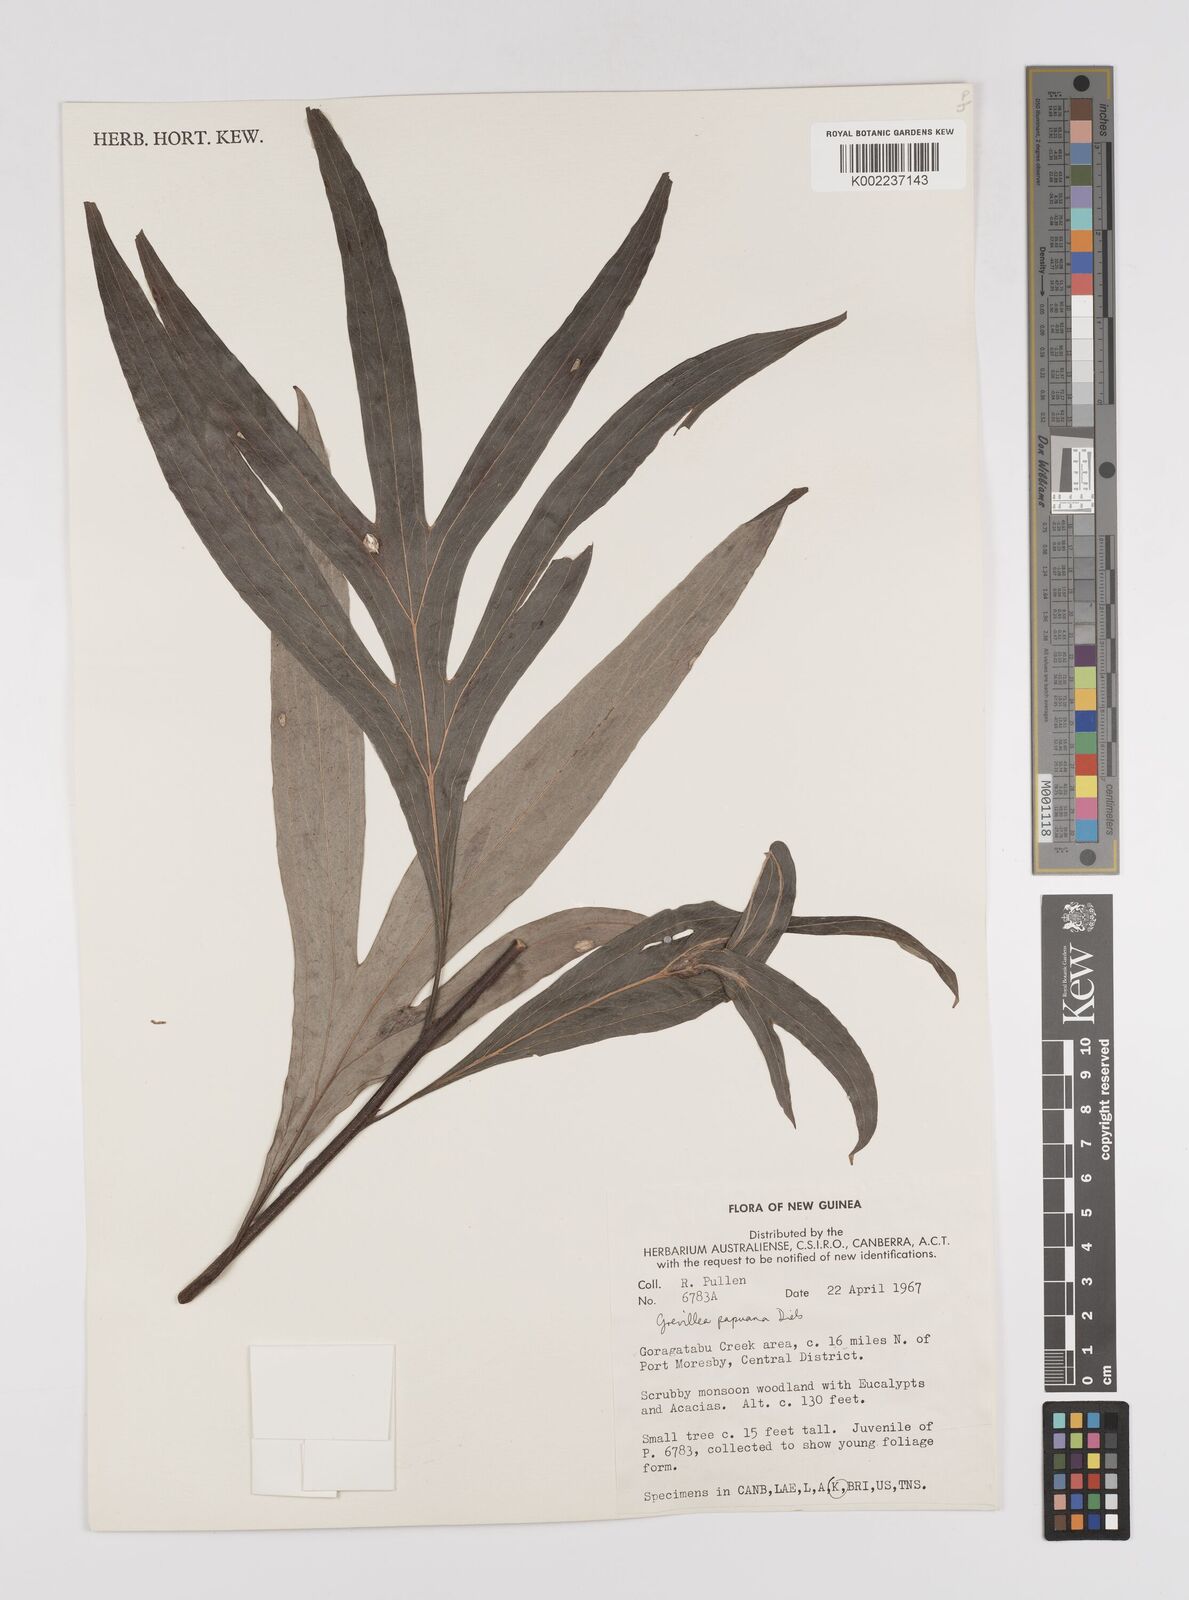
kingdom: Plantae
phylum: Tracheophyta
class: Magnoliopsida
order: Proteales
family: Proteaceae
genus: Grevillea
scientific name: Grevillea papuana
